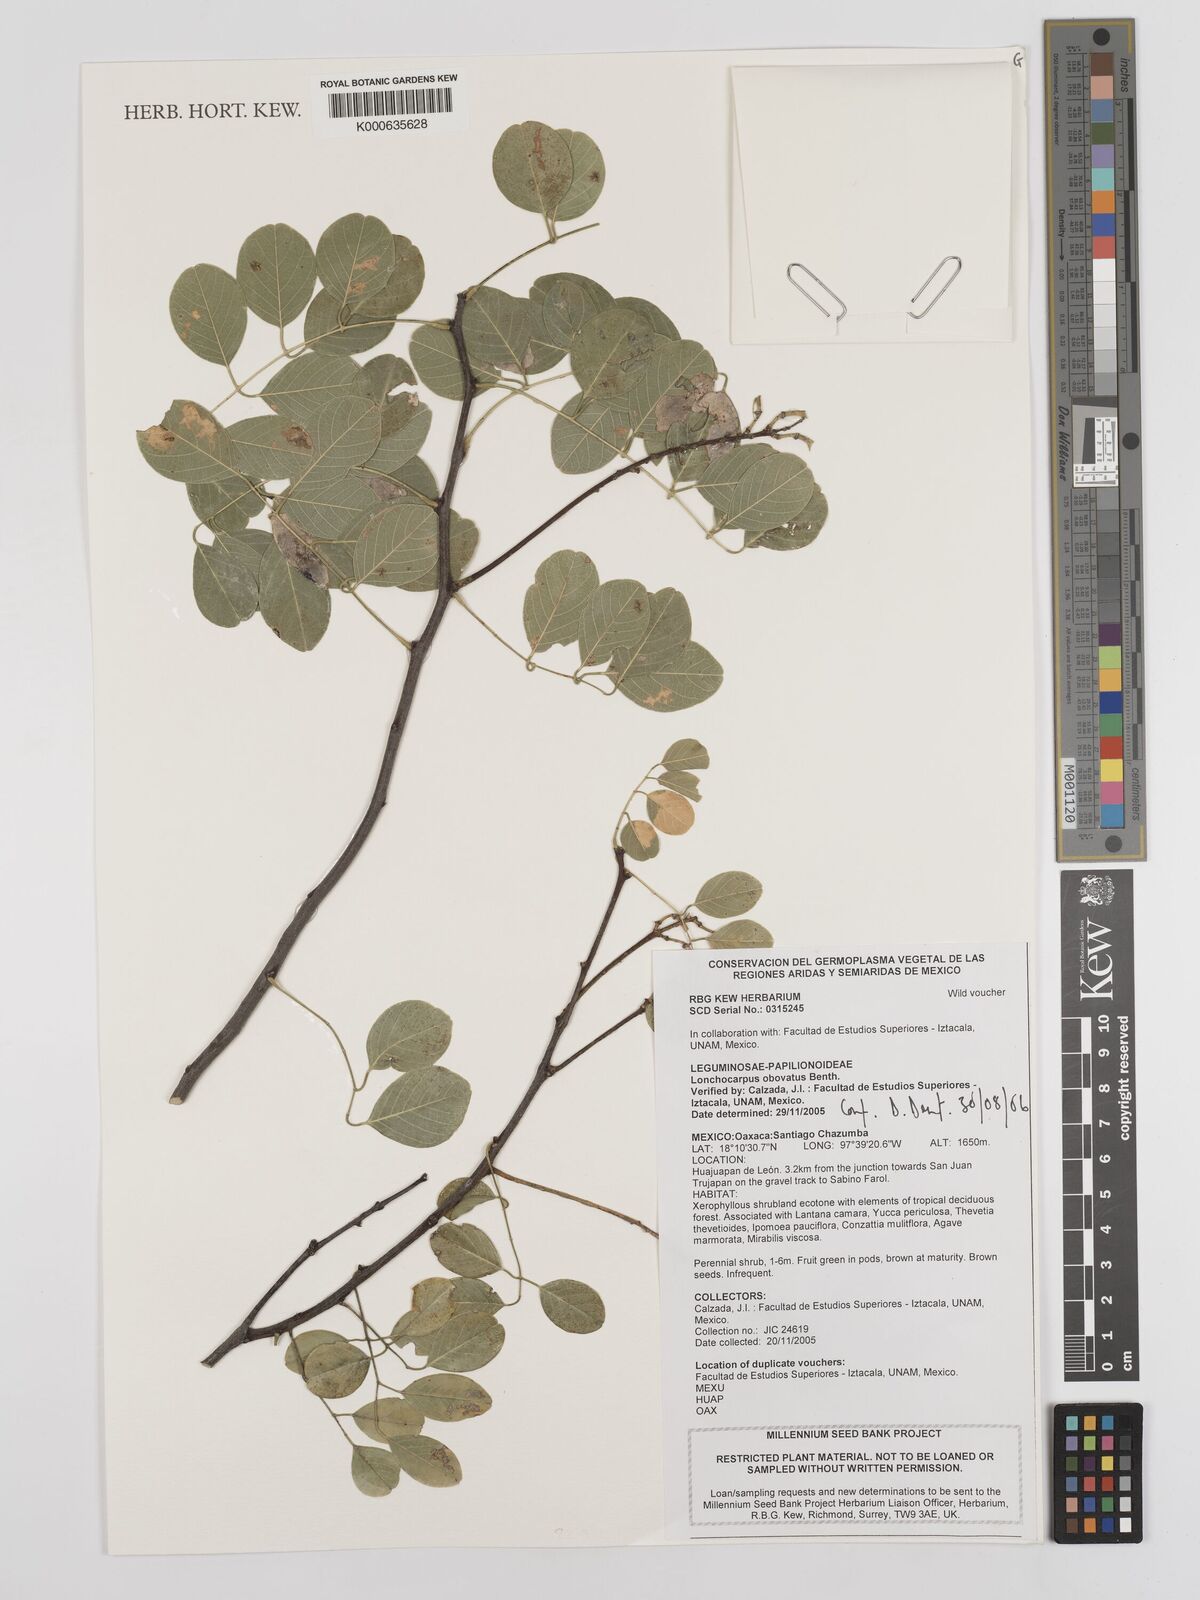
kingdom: Plantae
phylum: Tracheophyta
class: Magnoliopsida
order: Fabales
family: Fabaceae
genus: Lonchocarpus
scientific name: Lonchocarpus obovatus
